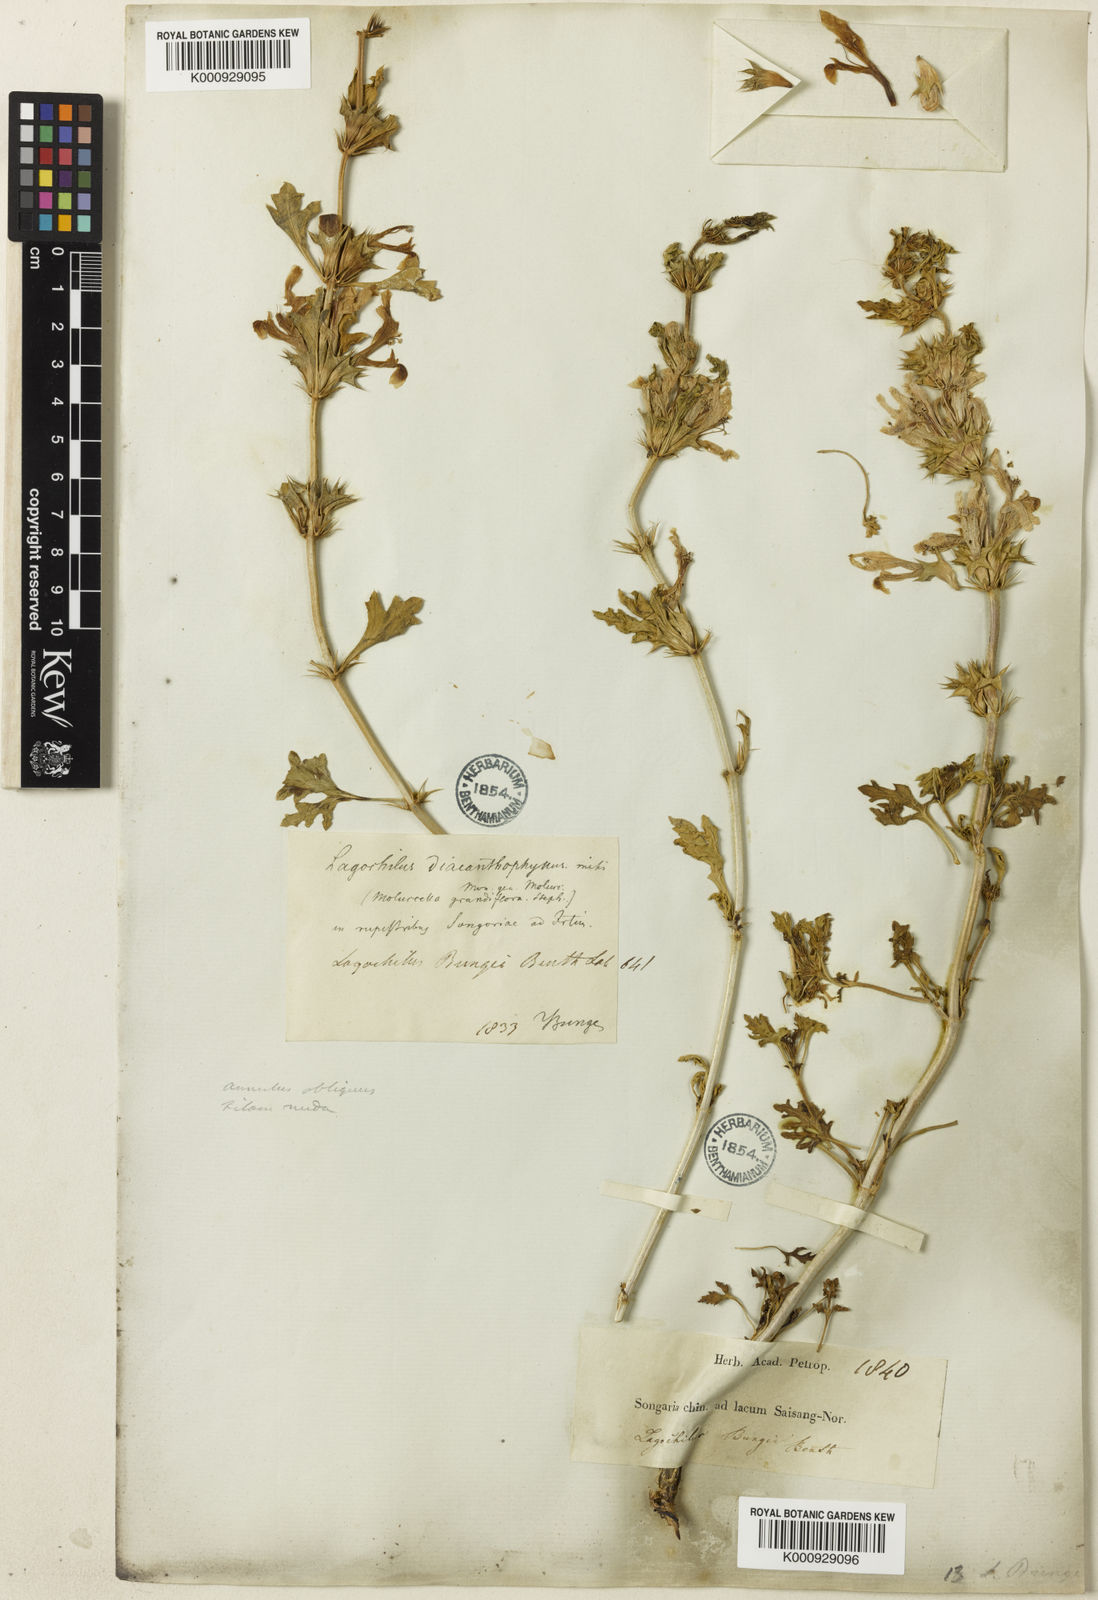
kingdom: Plantae
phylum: Tracheophyta
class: Magnoliopsida
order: Lamiales
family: Lamiaceae
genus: Lagochilus
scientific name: Lagochilus bungei
